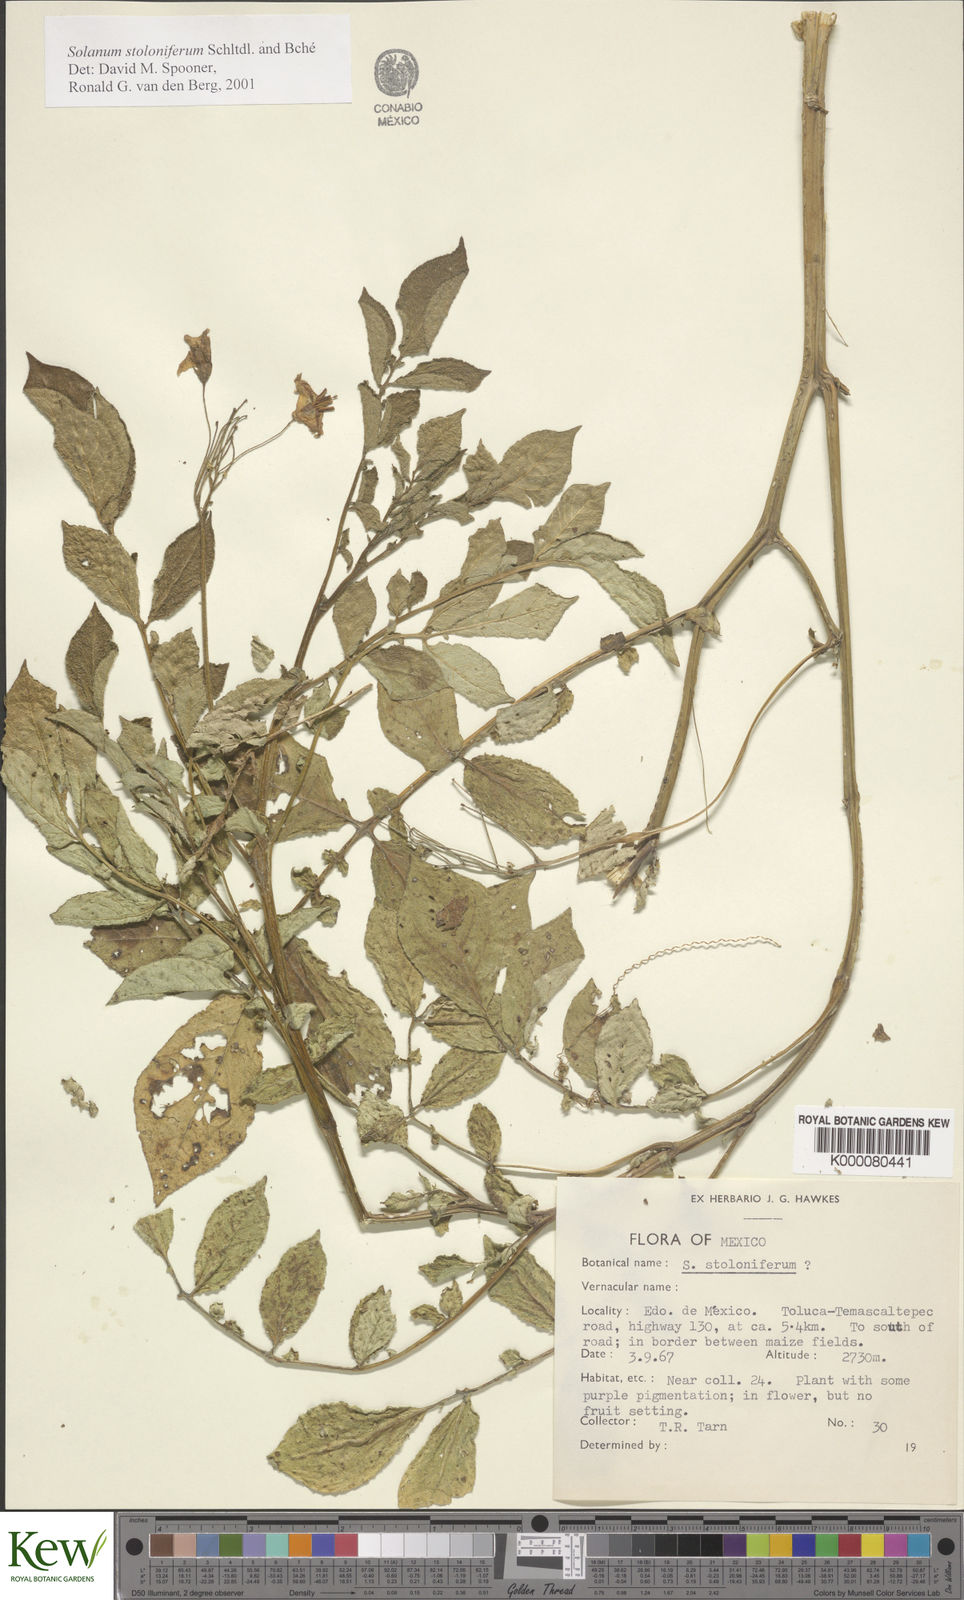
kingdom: Plantae
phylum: Tracheophyta
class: Magnoliopsida
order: Solanales
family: Solanaceae
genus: Solanum
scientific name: Solanum stoloniferum
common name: Fendler's nighshade
